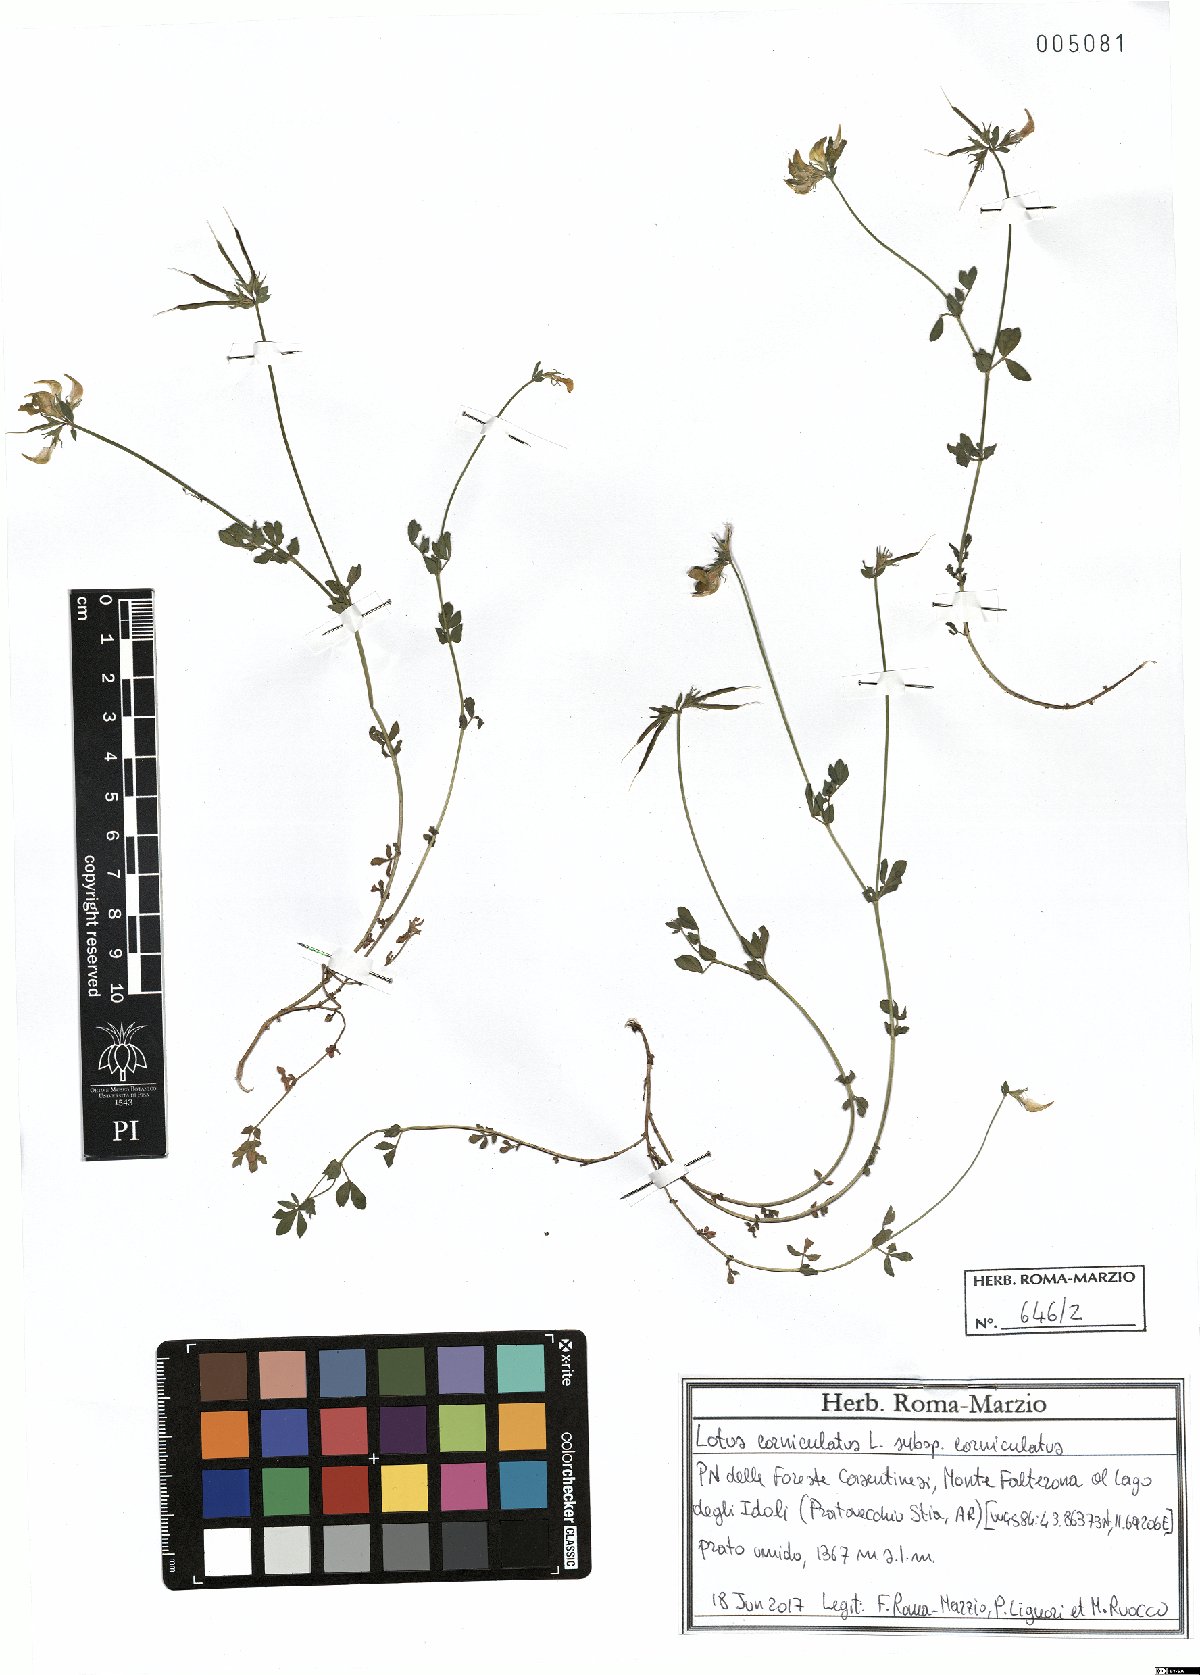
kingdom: Plantae
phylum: Tracheophyta
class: Magnoliopsida
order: Fabales
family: Fabaceae
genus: Lotus
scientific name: Lotus corniculatus
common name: Common bird's-foot-trefoil
